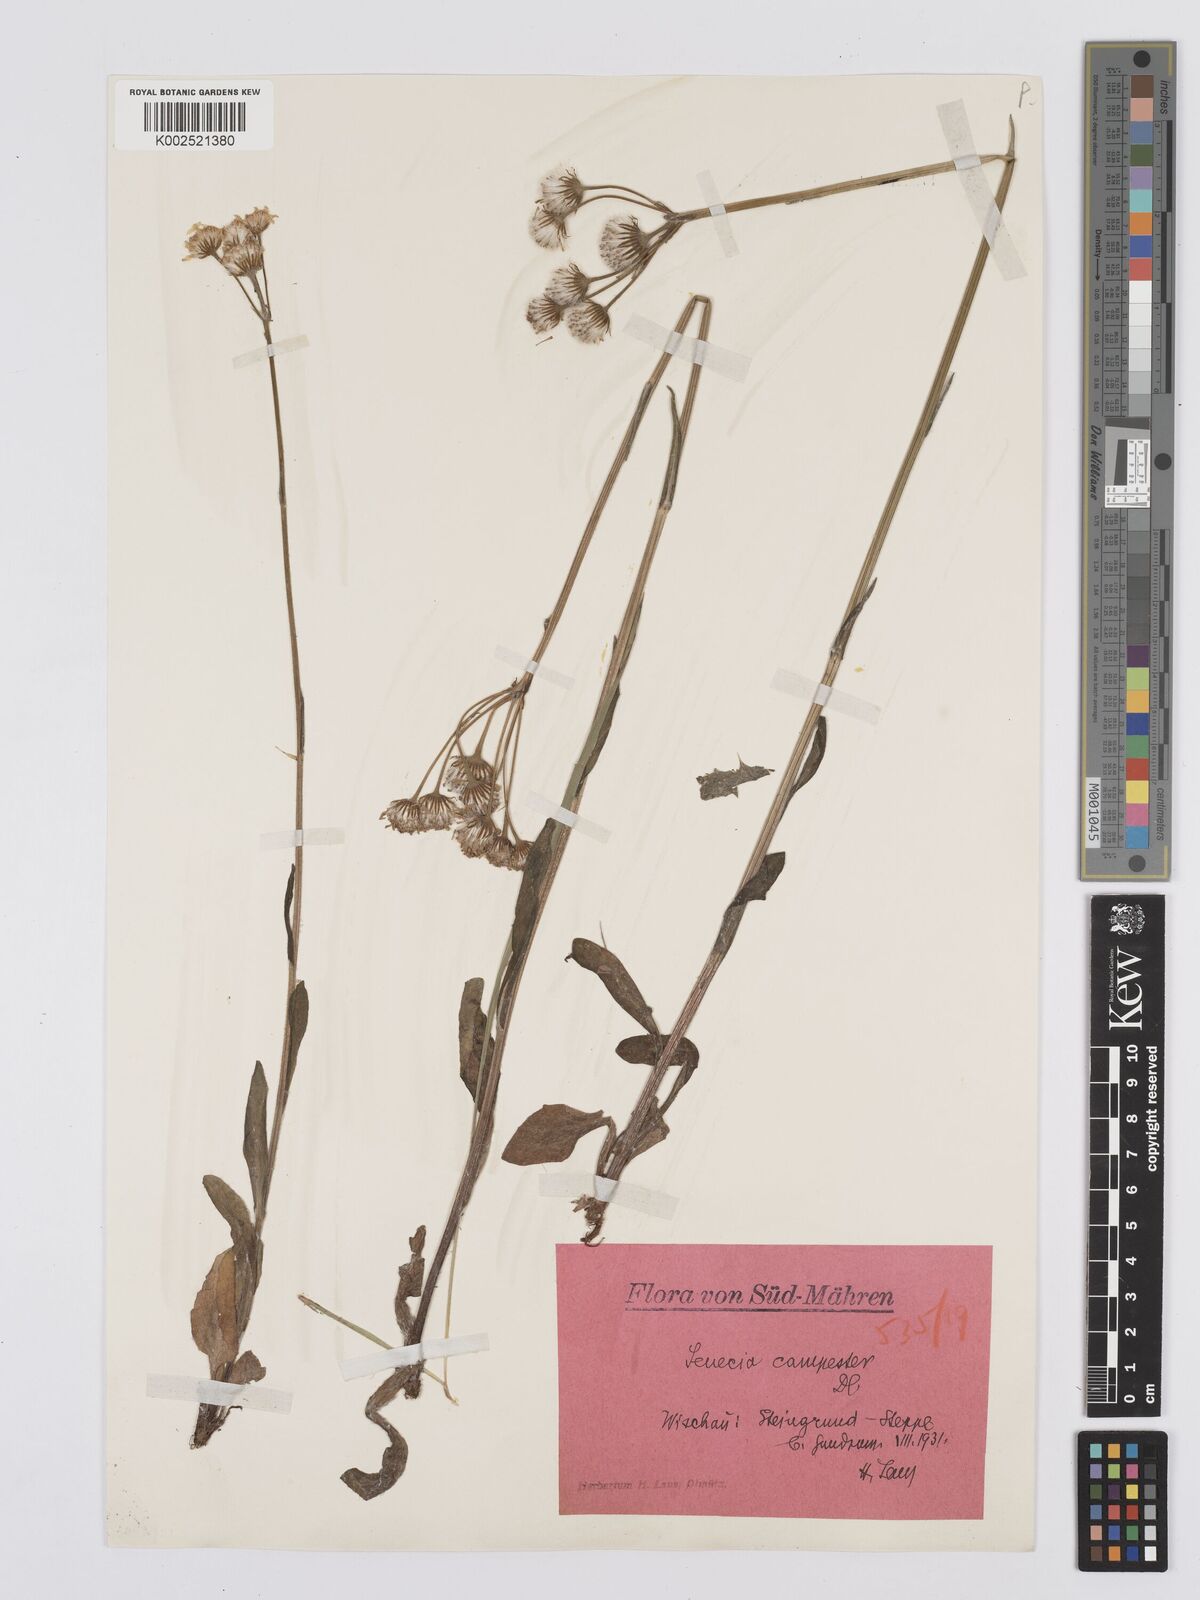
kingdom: Plantae
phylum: Tracheophyta
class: Magnoliopsida
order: Asterales
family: Asteraceae
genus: Tephroseris
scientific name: Tephroseris integrifolia
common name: Field fleawort
